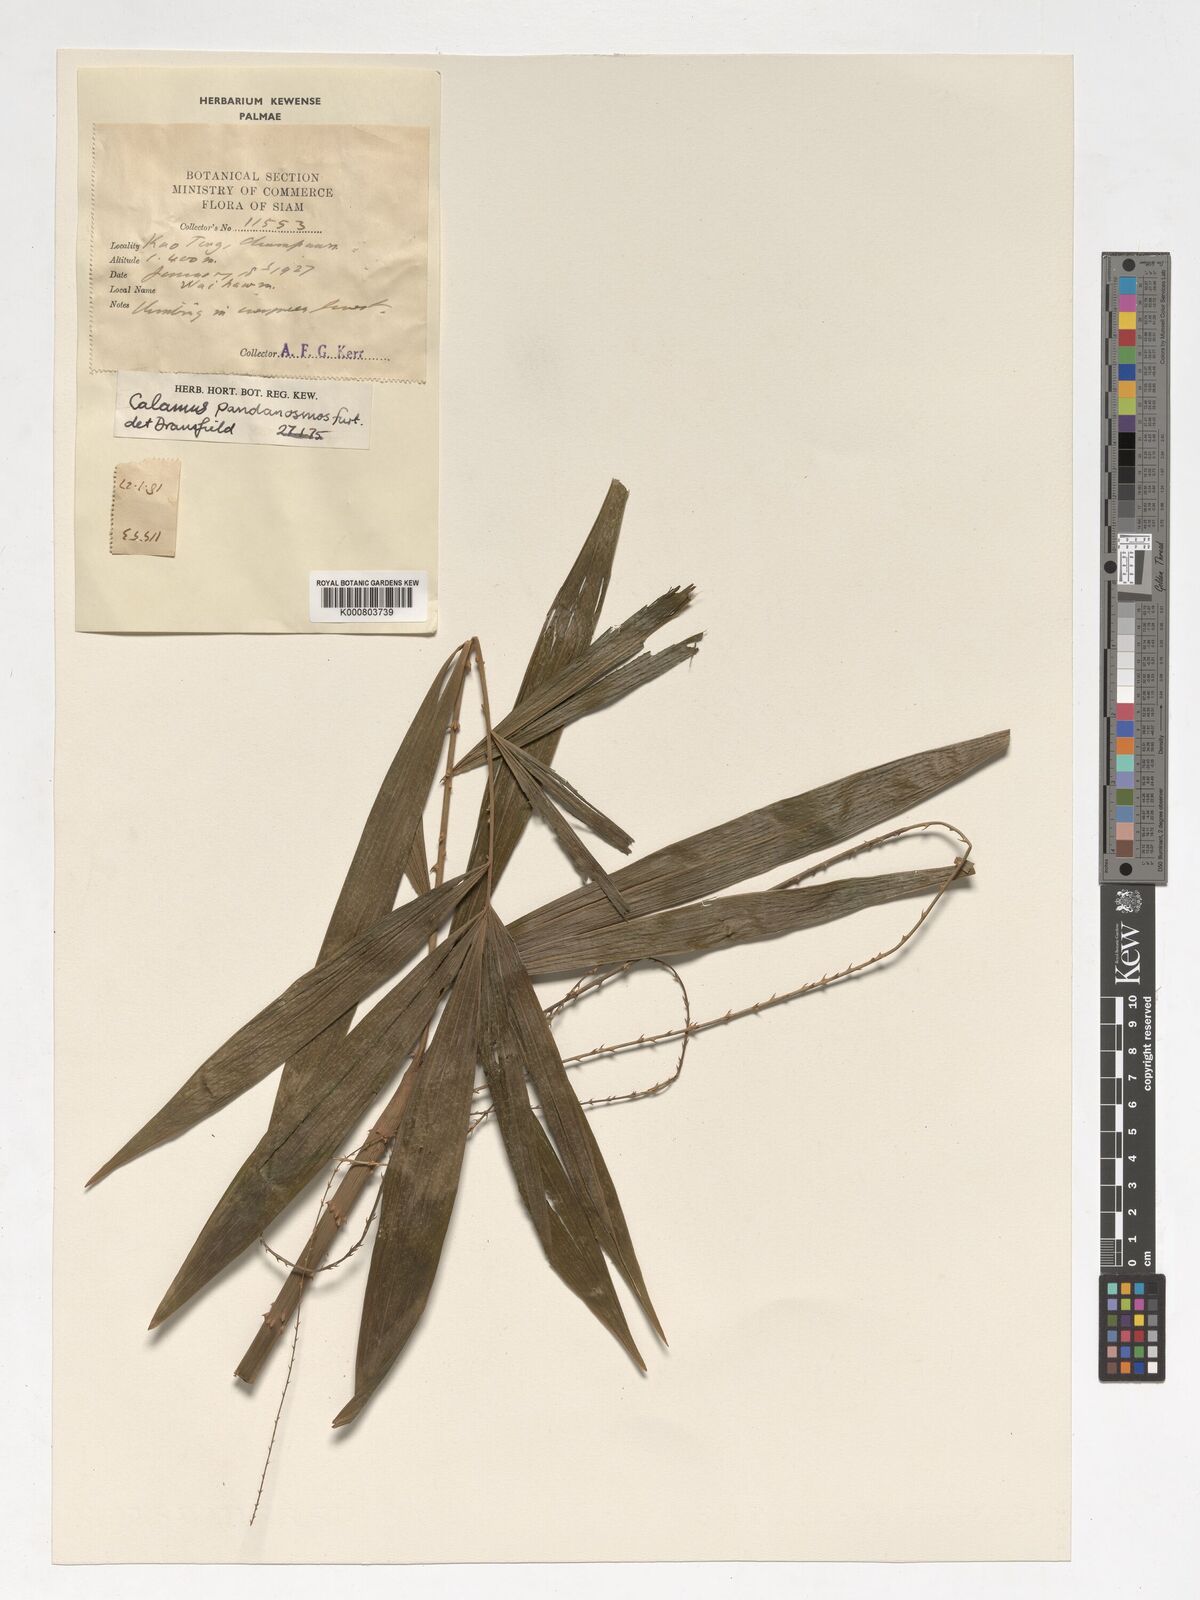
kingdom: Plantae
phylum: Tracheophyta
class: Liliopsida
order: Arecales
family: Arecaceae
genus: Calamus
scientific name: Calamus pandanosmus
